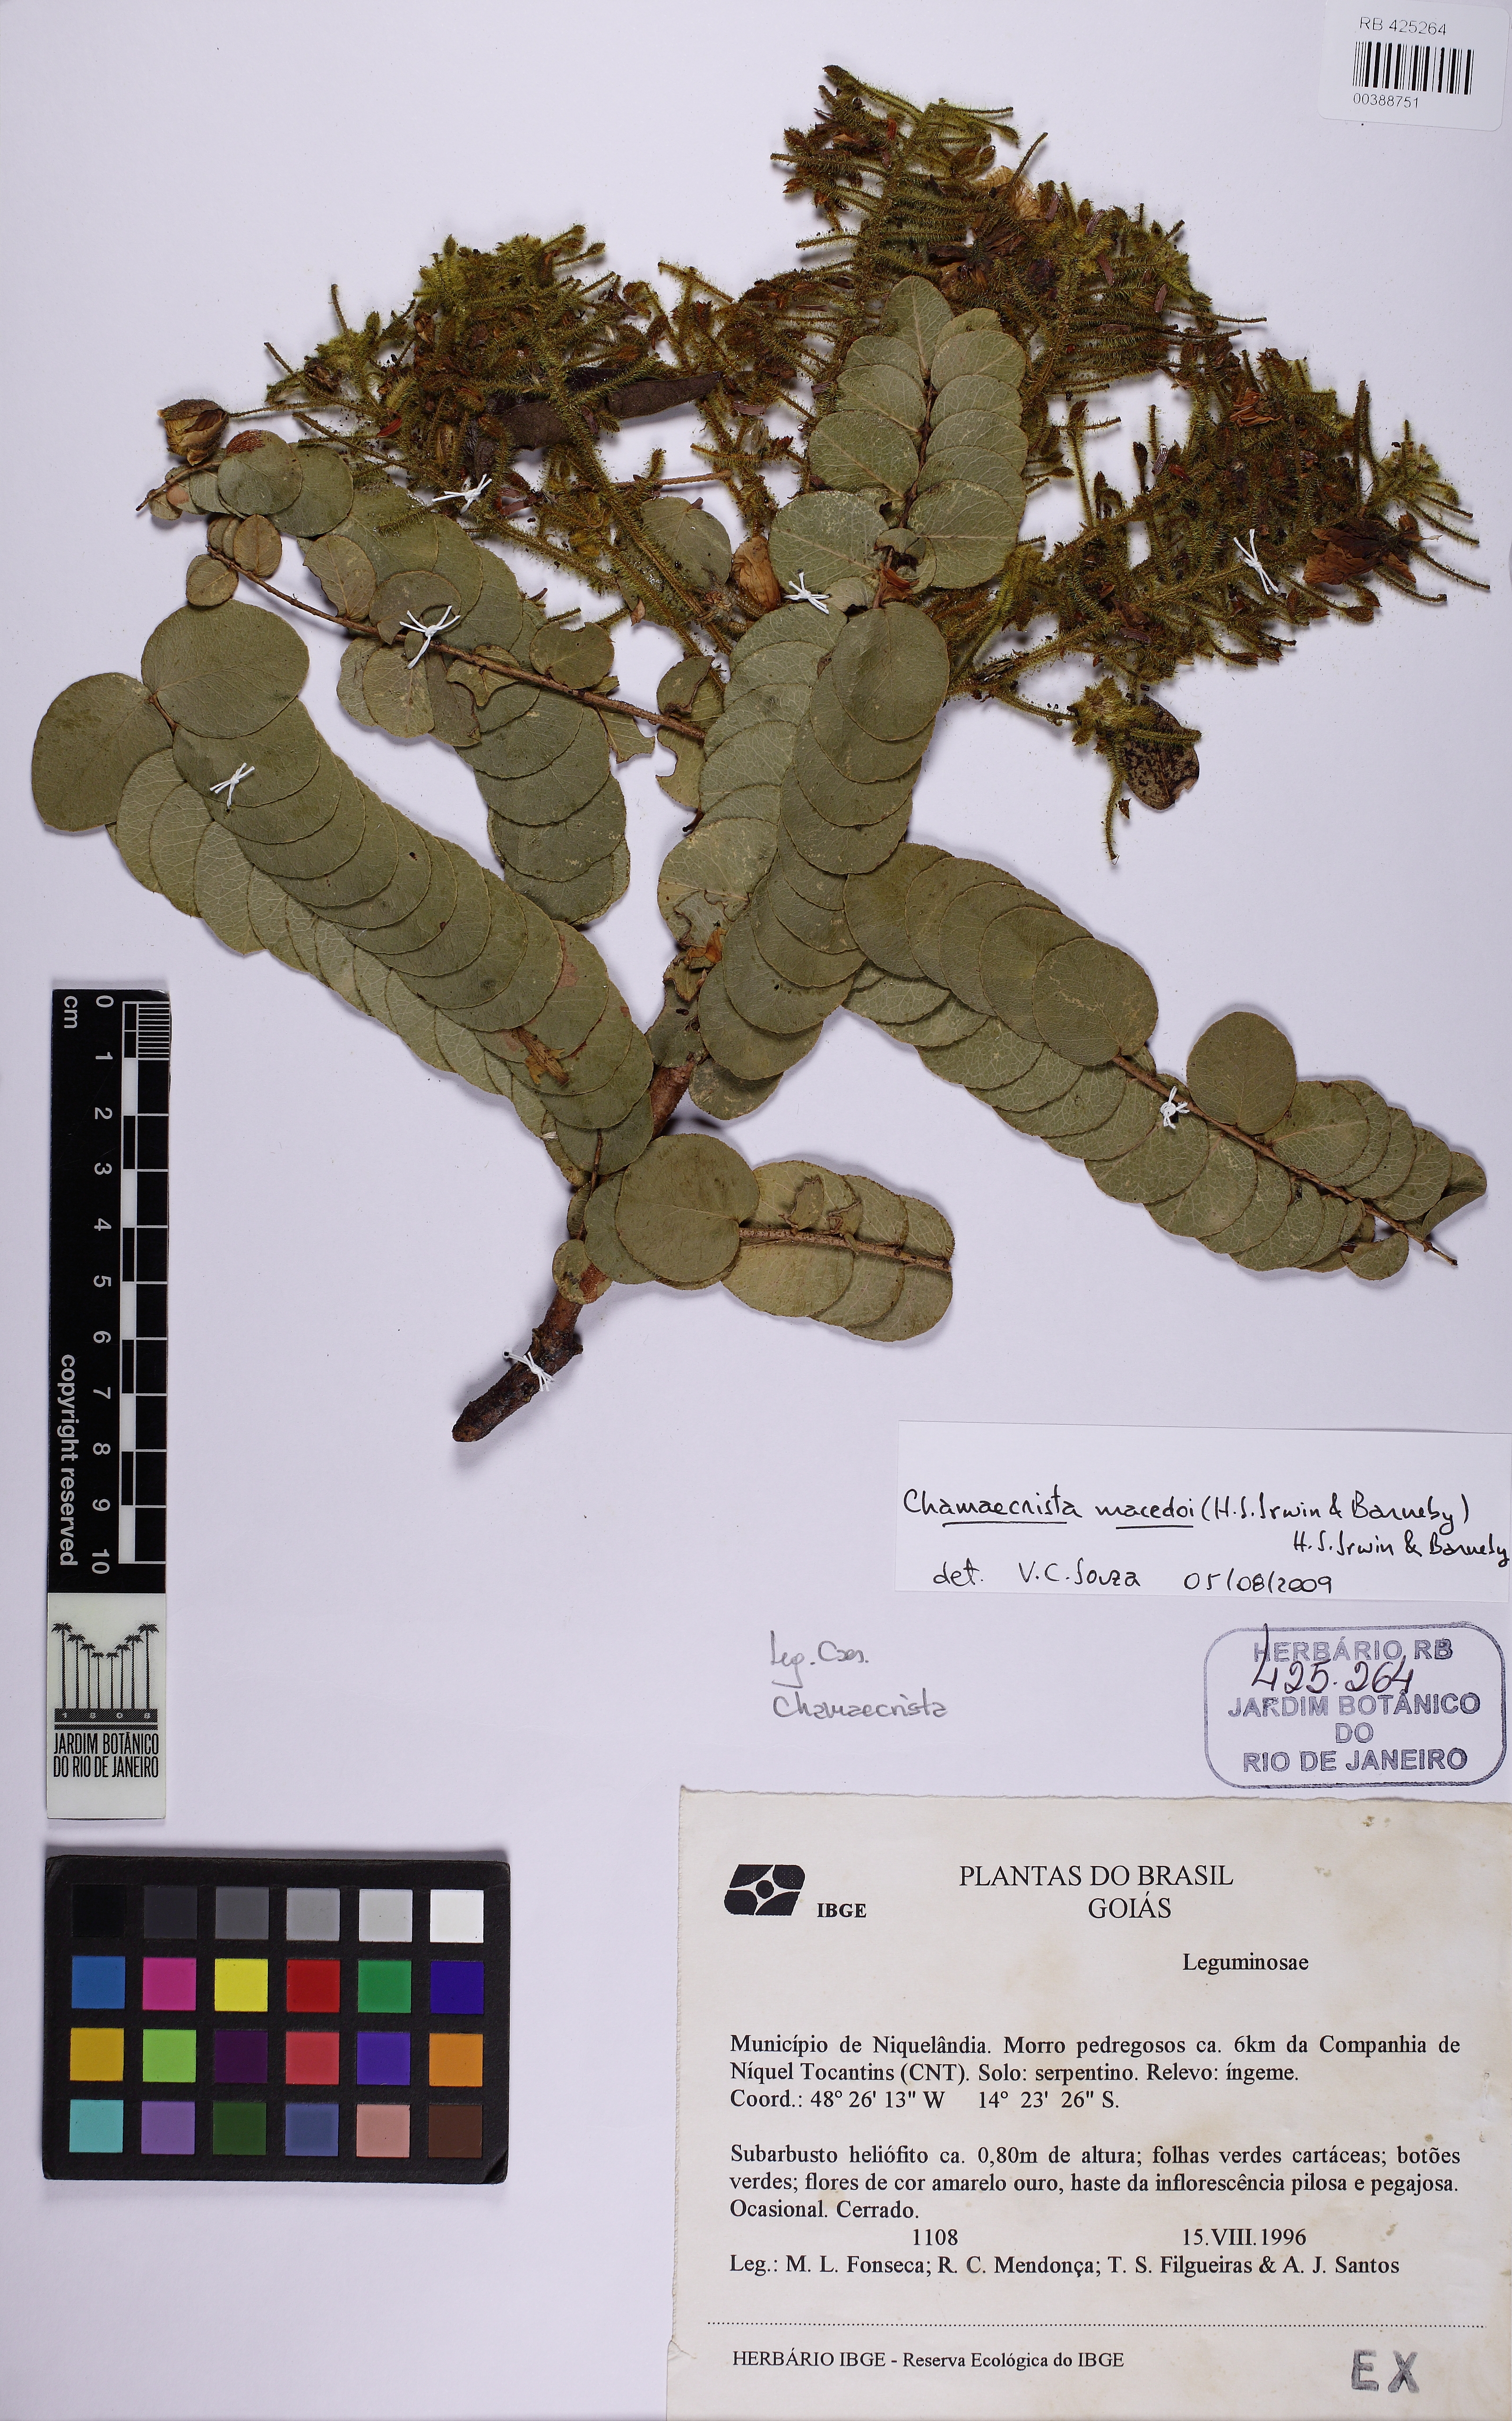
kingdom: Plantae
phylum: Tracheophyta
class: Magnoliopsida
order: Fabales
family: Fabaceae
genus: Chamaecrista
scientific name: Chamaecrista macedoi
